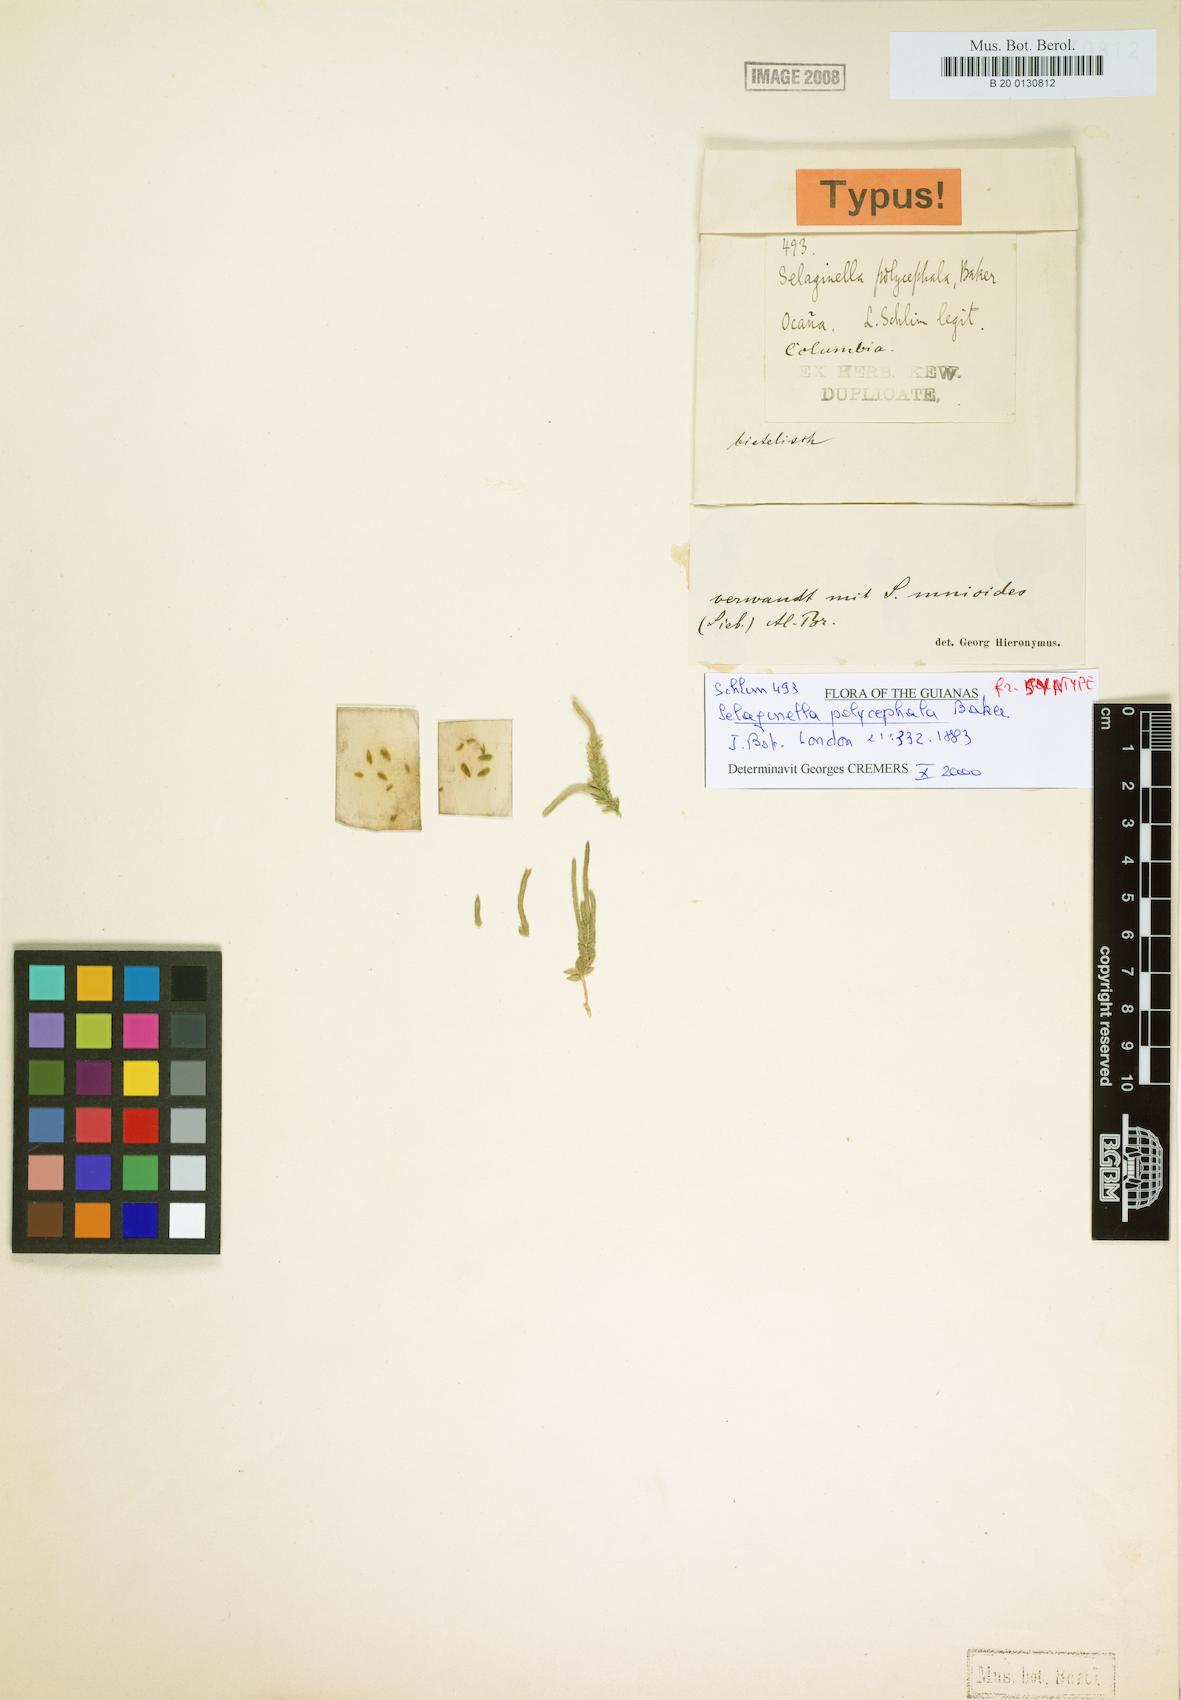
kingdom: Plantae
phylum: Tracheophyta
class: Lycopodiopsida
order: Selaginellales
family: Selaginellaceae
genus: Selaginella
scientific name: Selaginella diffusa
